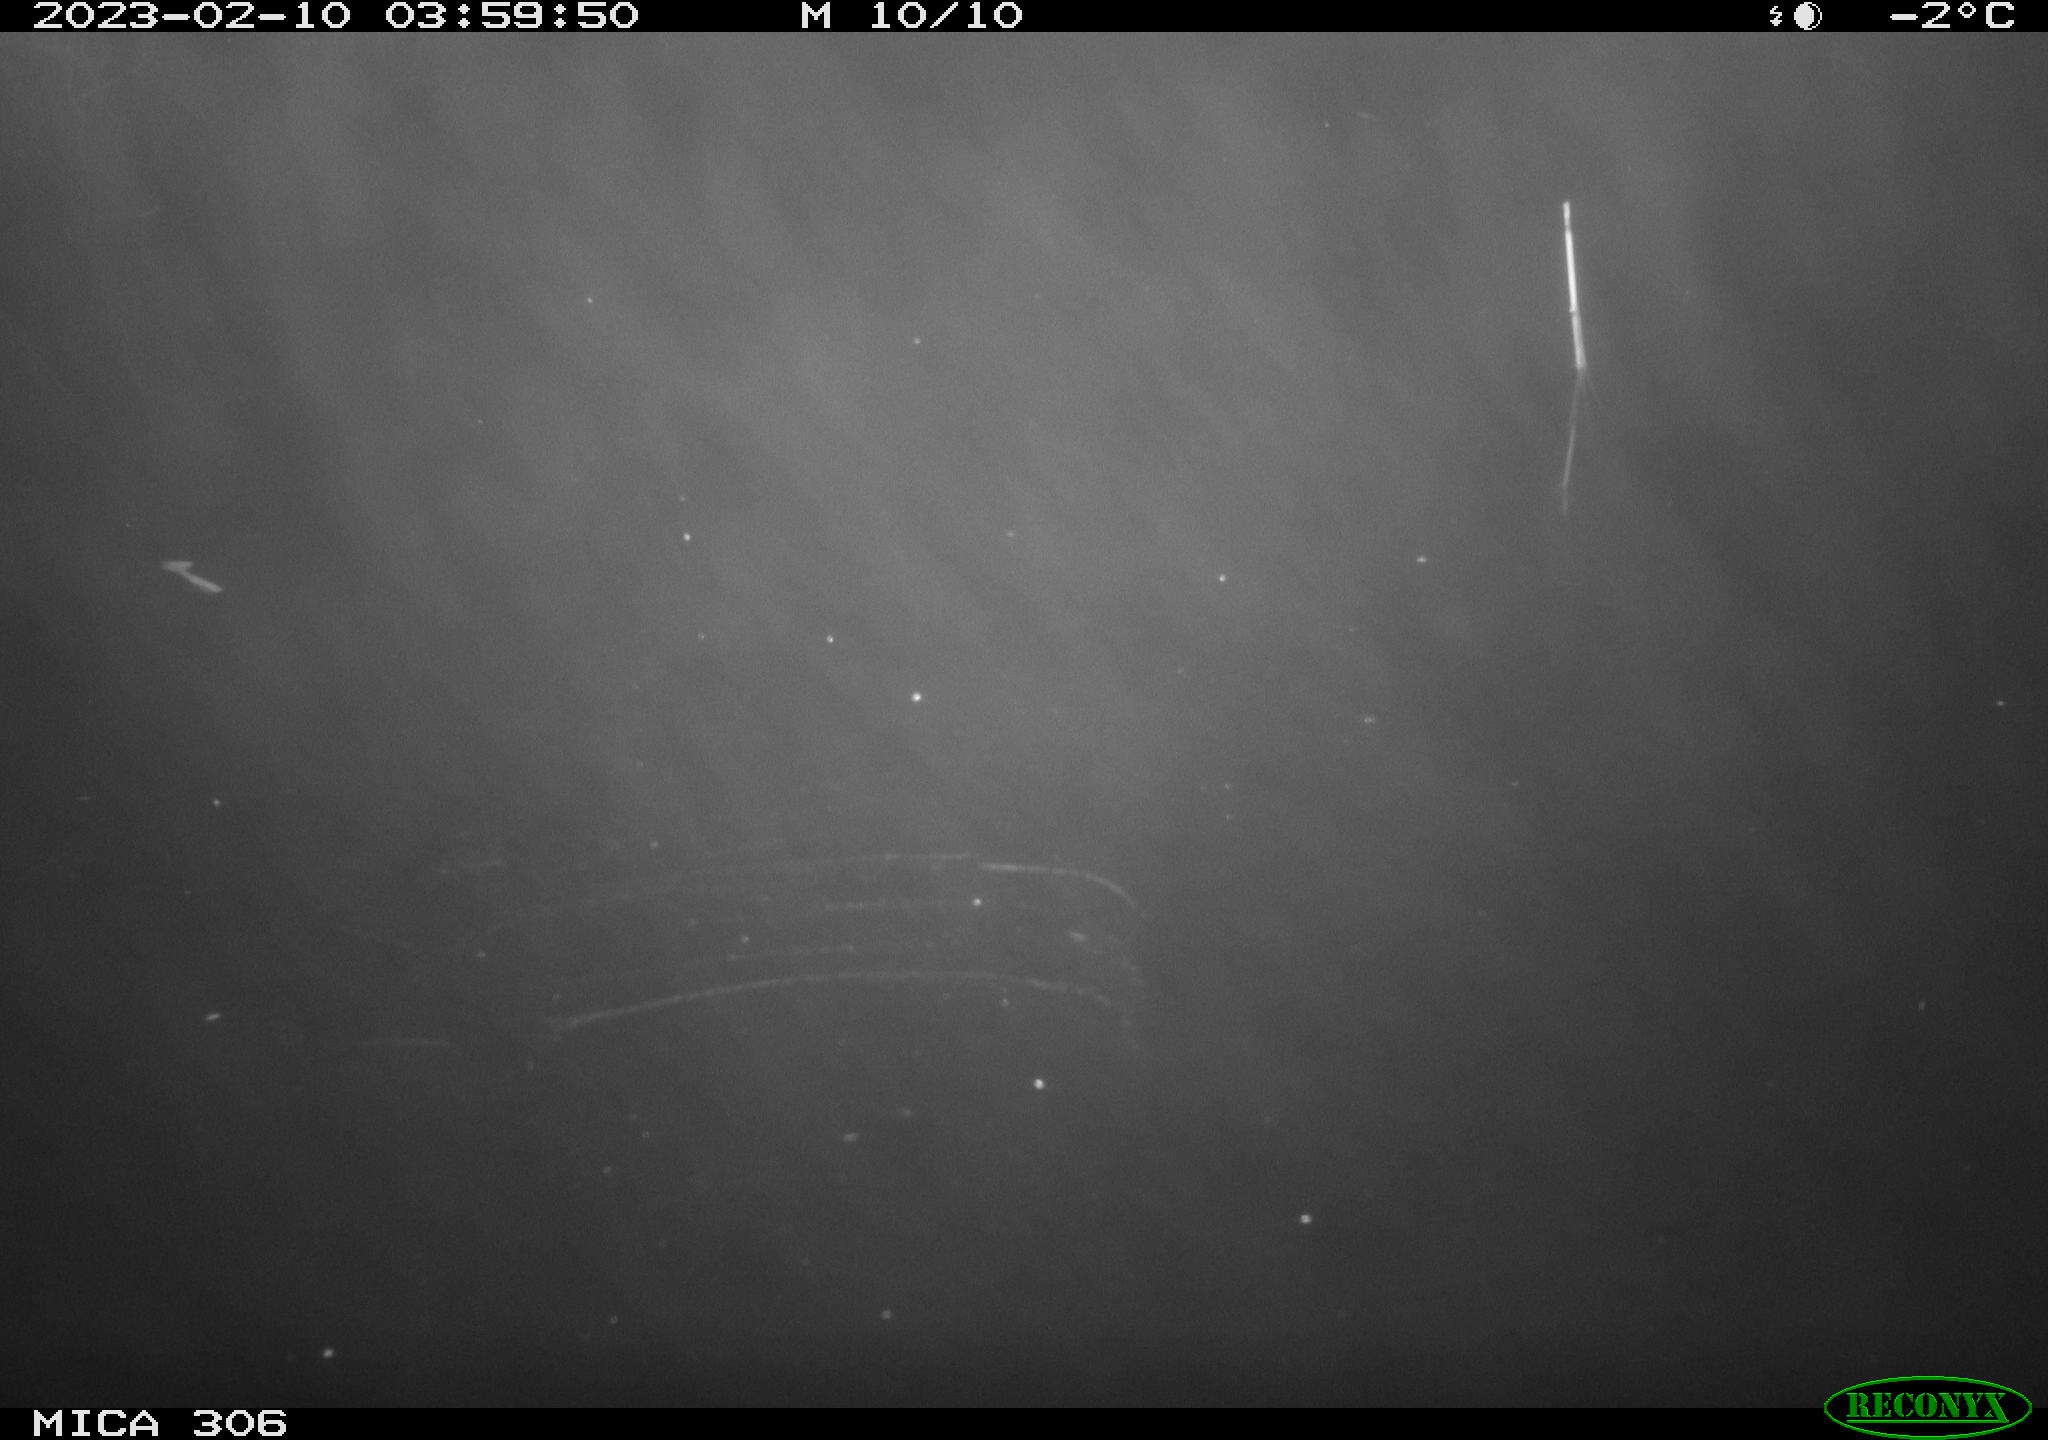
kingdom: Animalia
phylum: Chordata
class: Mammalia
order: Rodentia
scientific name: Rodentia
